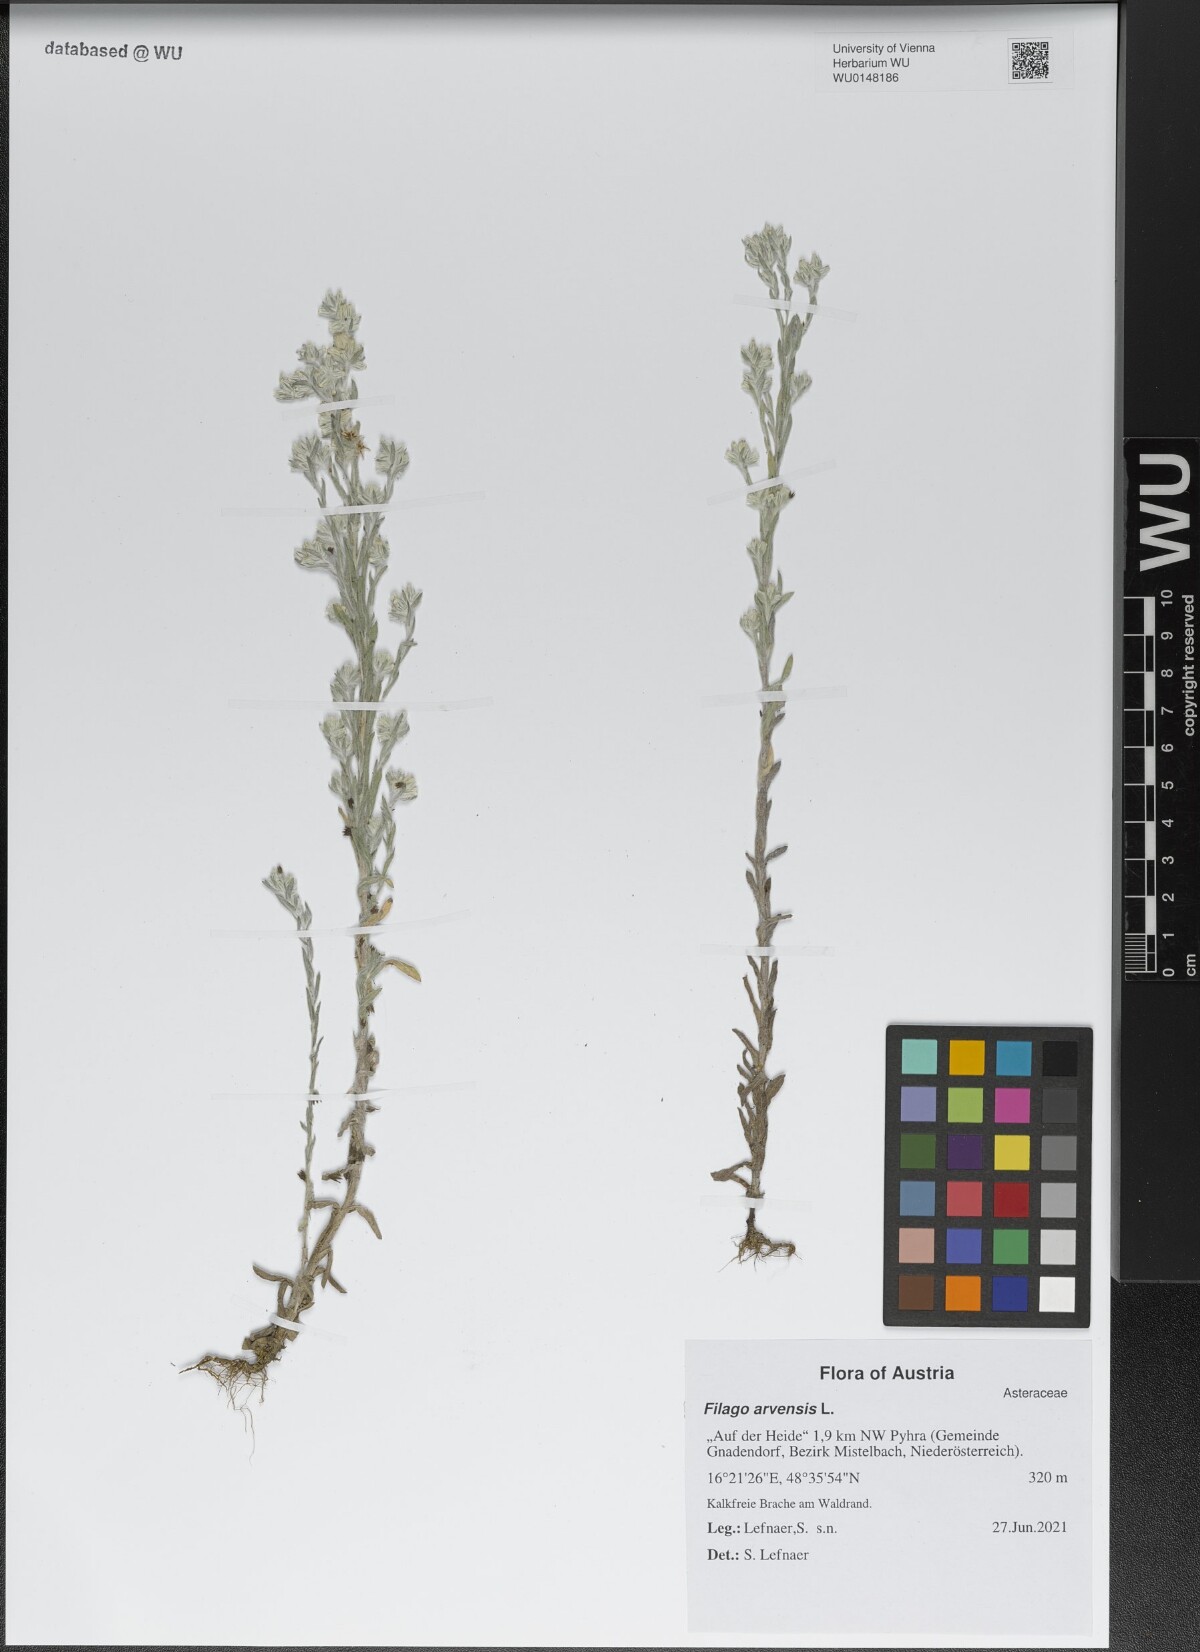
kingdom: Plantae
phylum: Tracheophyta
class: Magnoliopsida
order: Asterales
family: Asteraceae
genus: Filago
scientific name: Filago arvensis
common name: Field cudweed
